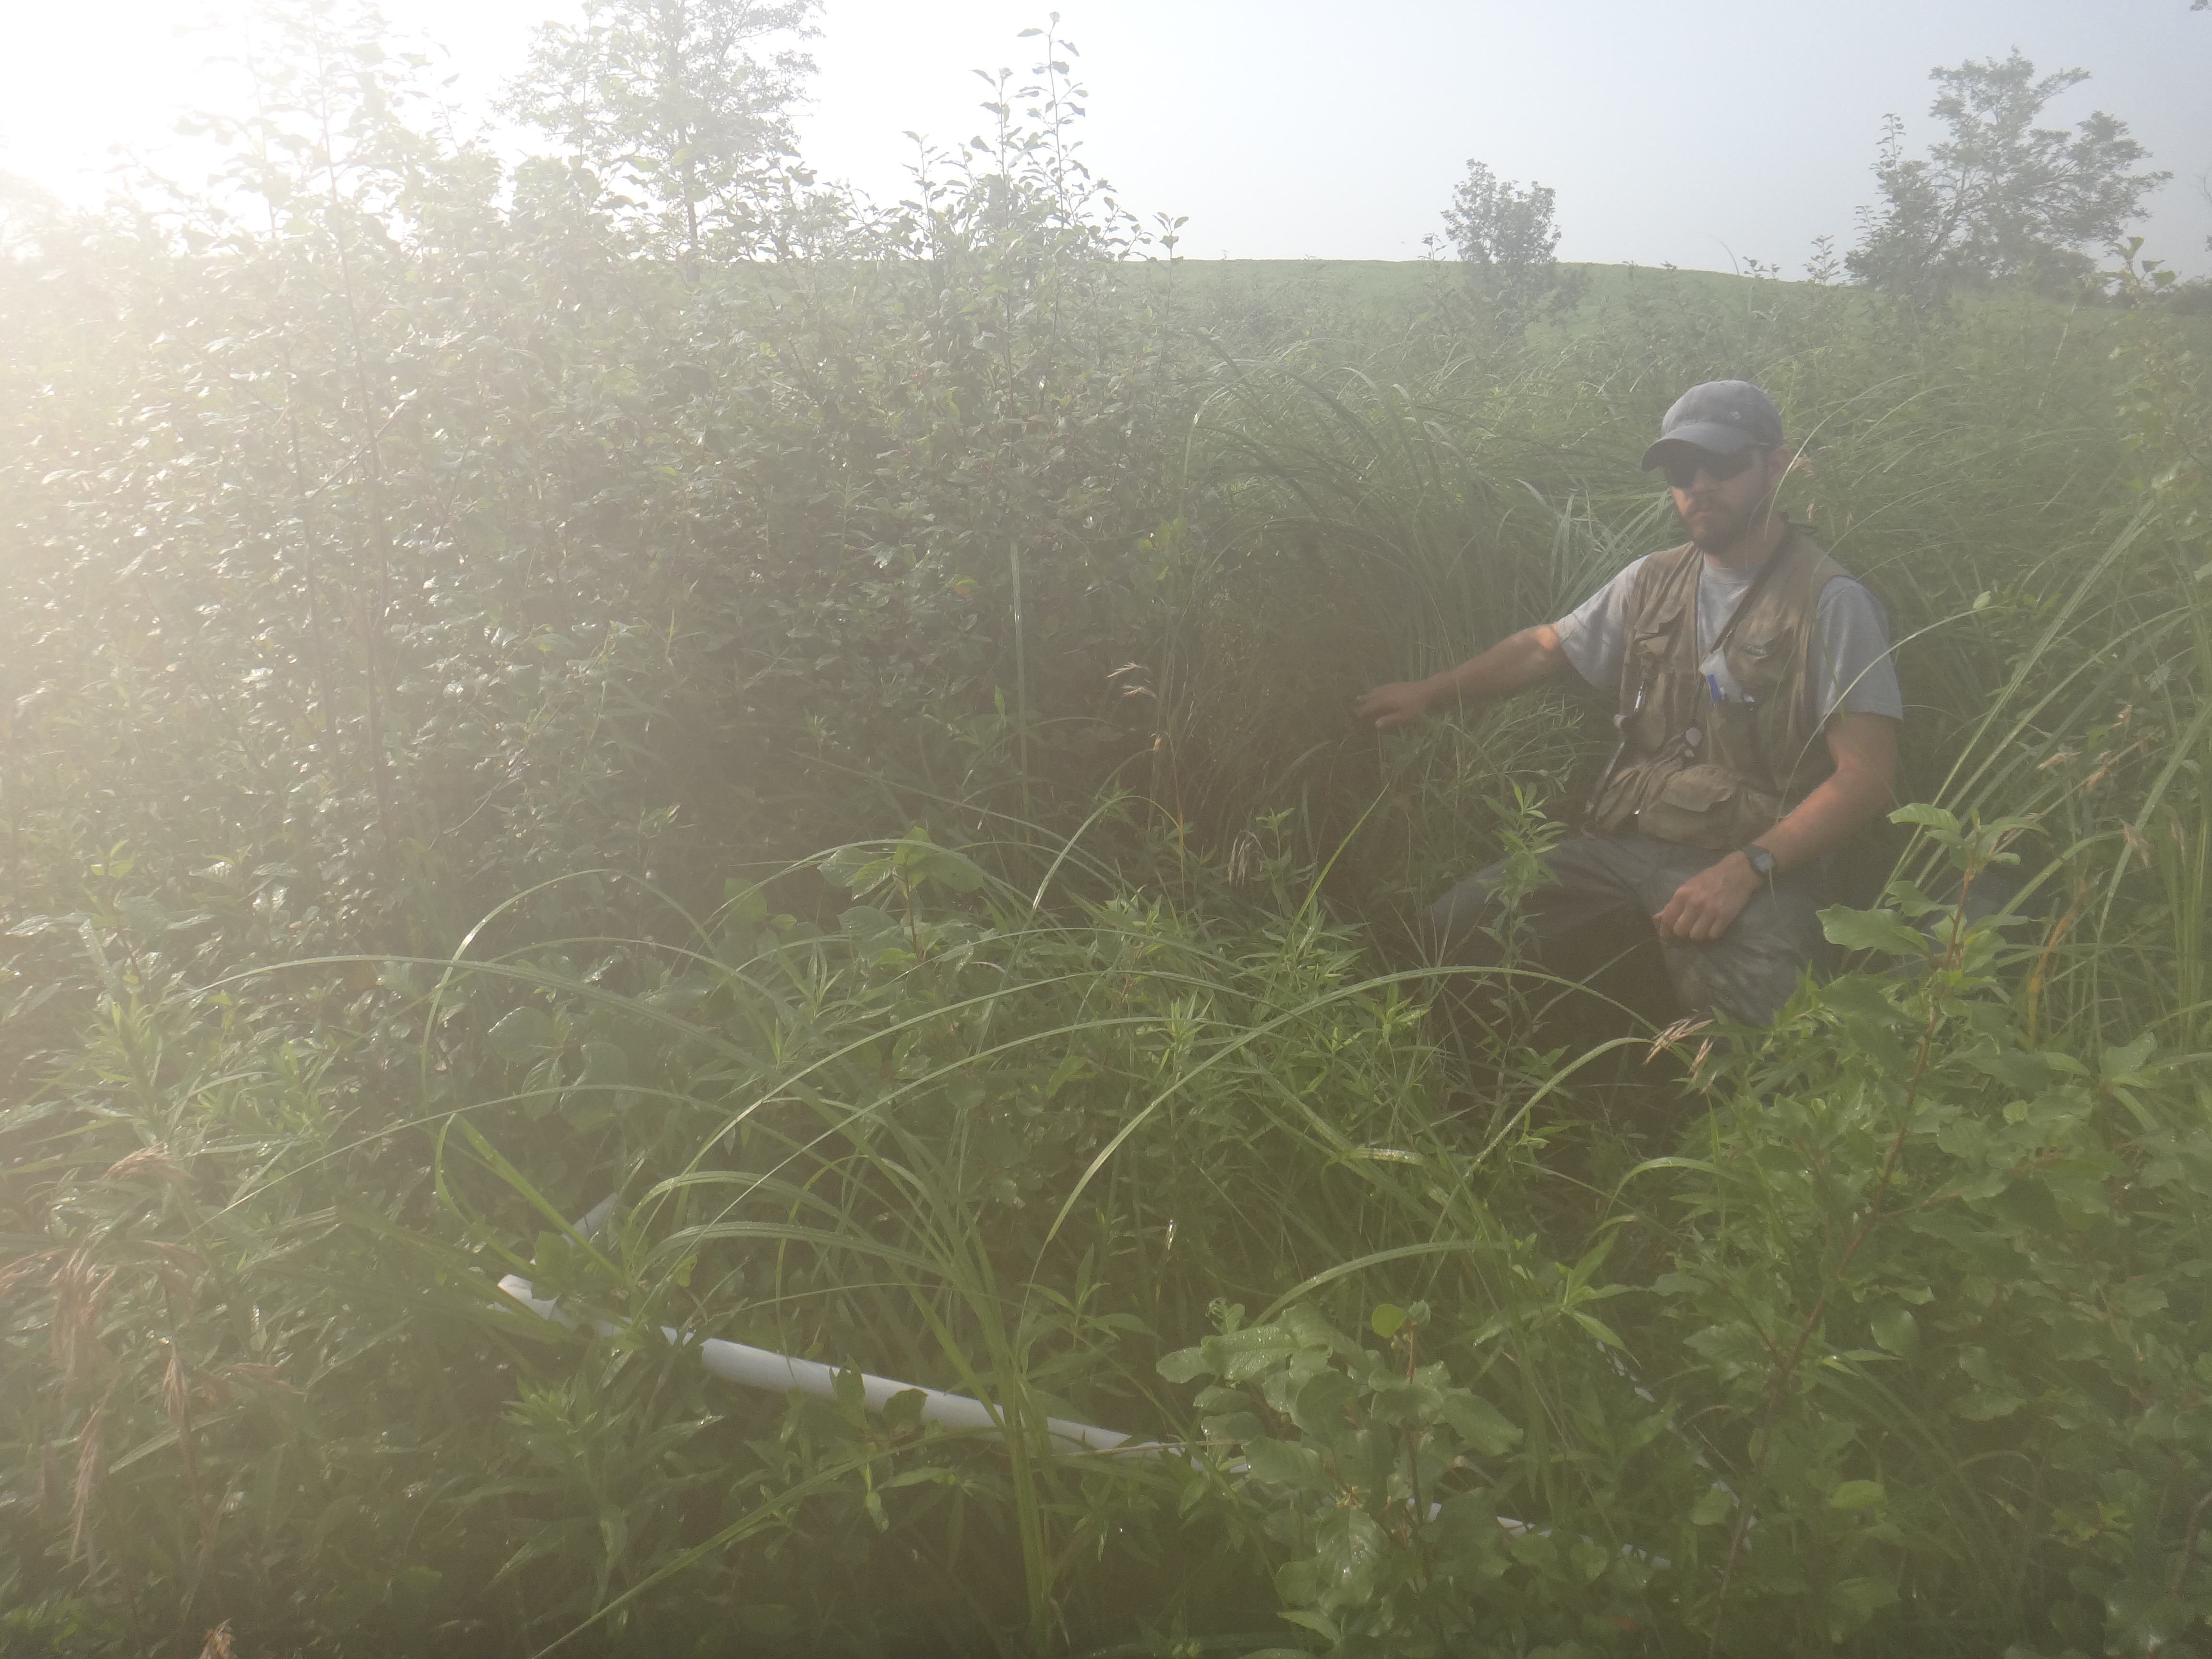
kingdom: Plantae
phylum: Tracheophyta
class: Liliopsida
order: Poales
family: Poaceae
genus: Agrostis
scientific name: Agrostis gigantea
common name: Black bent
